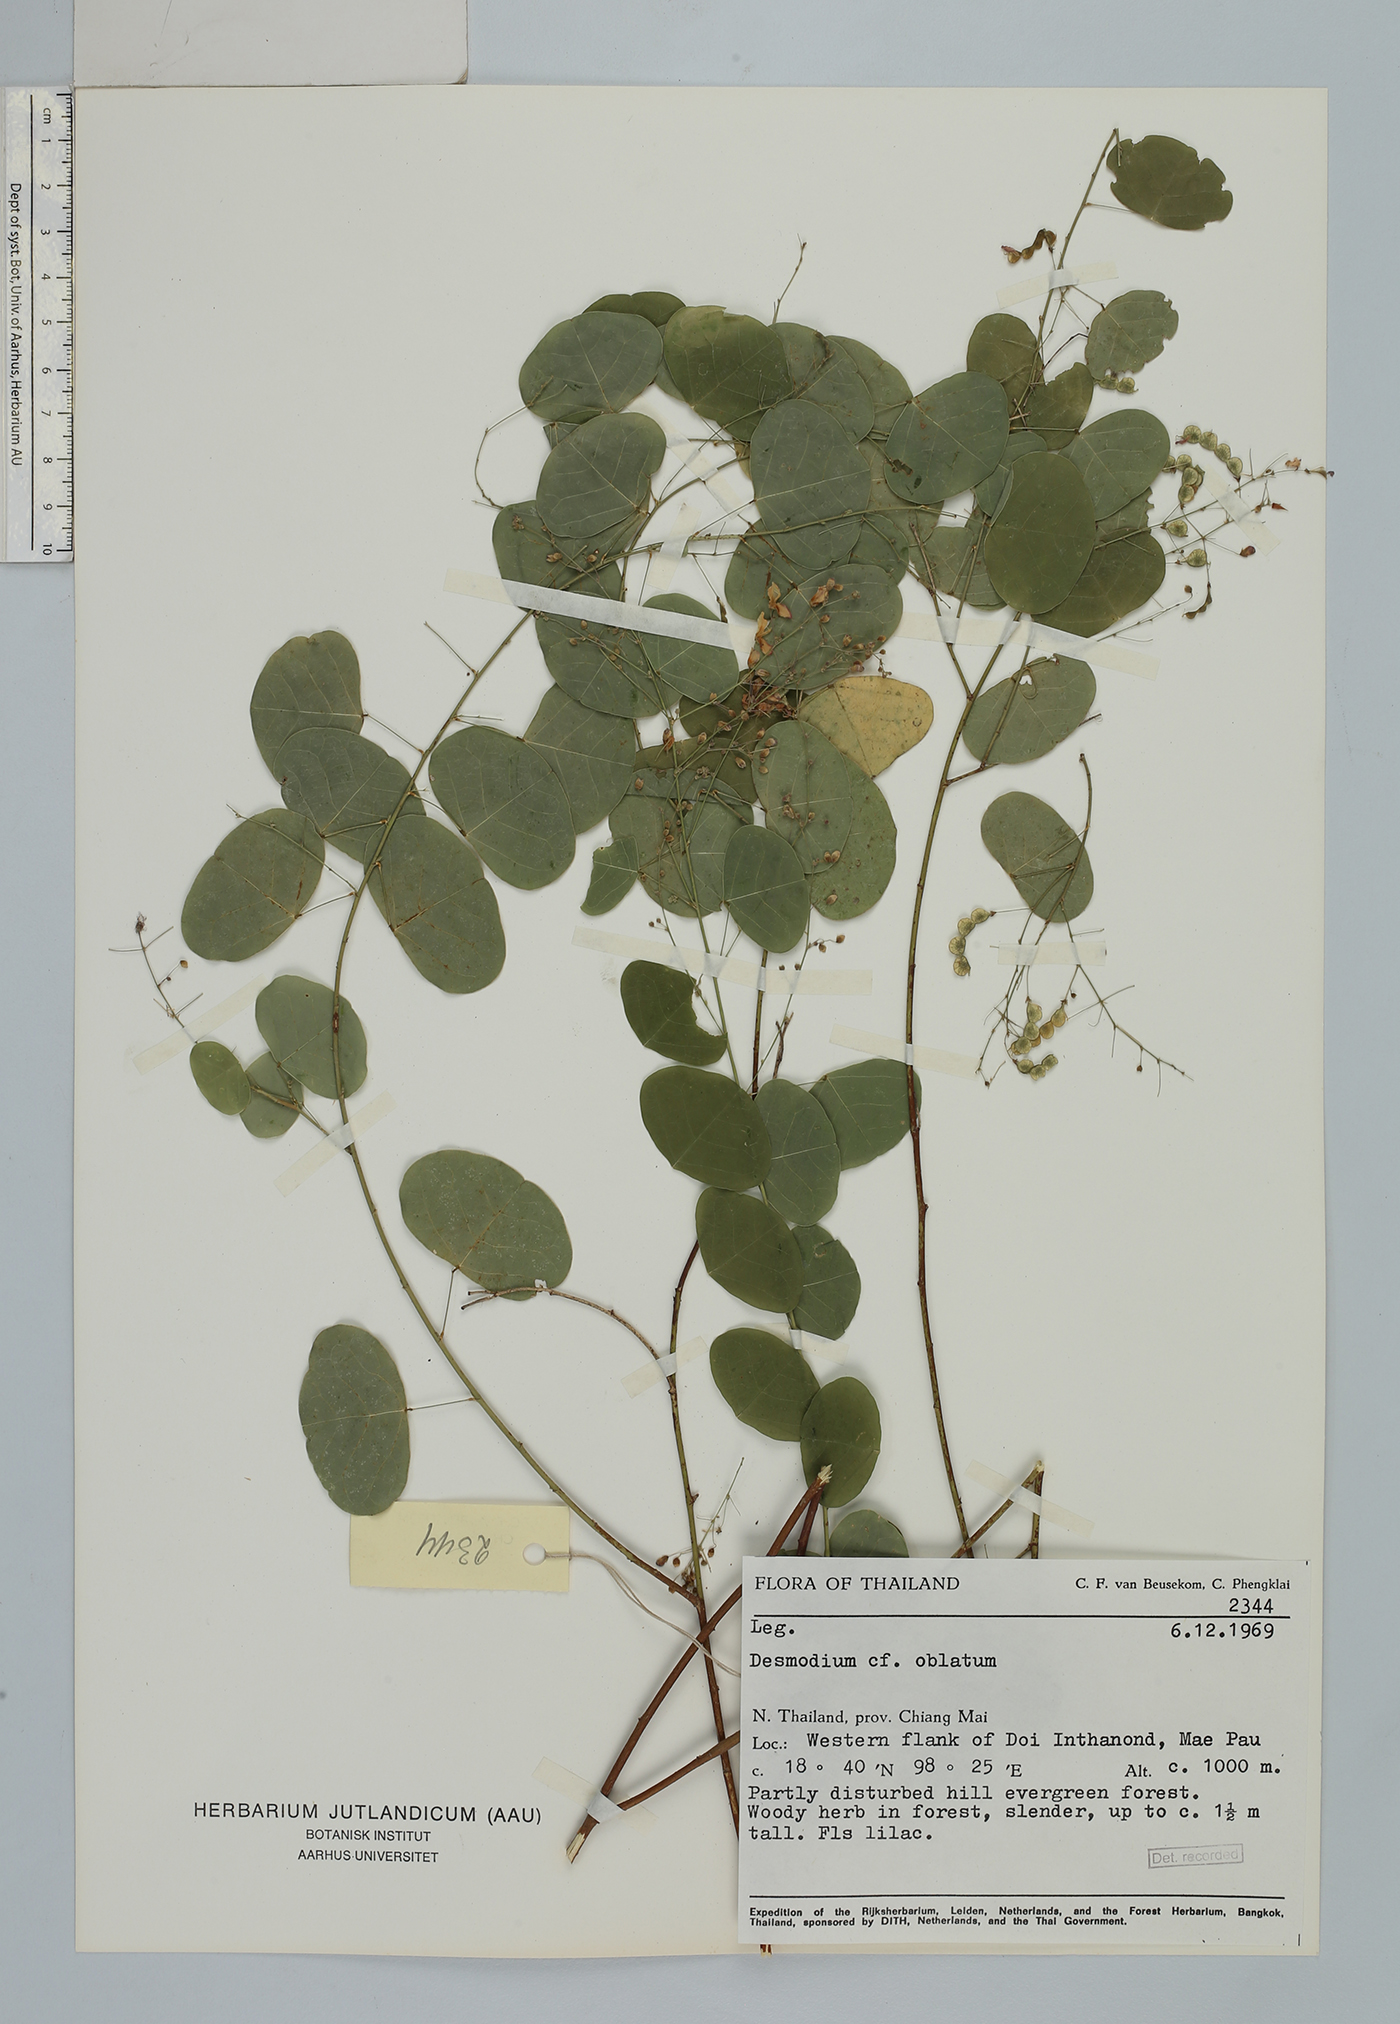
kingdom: Plantae
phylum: Tracheophyta
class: Magnoliopsida
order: Fabales
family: Fabaceae
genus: Huangtcia
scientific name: Huangtcia renifolia
